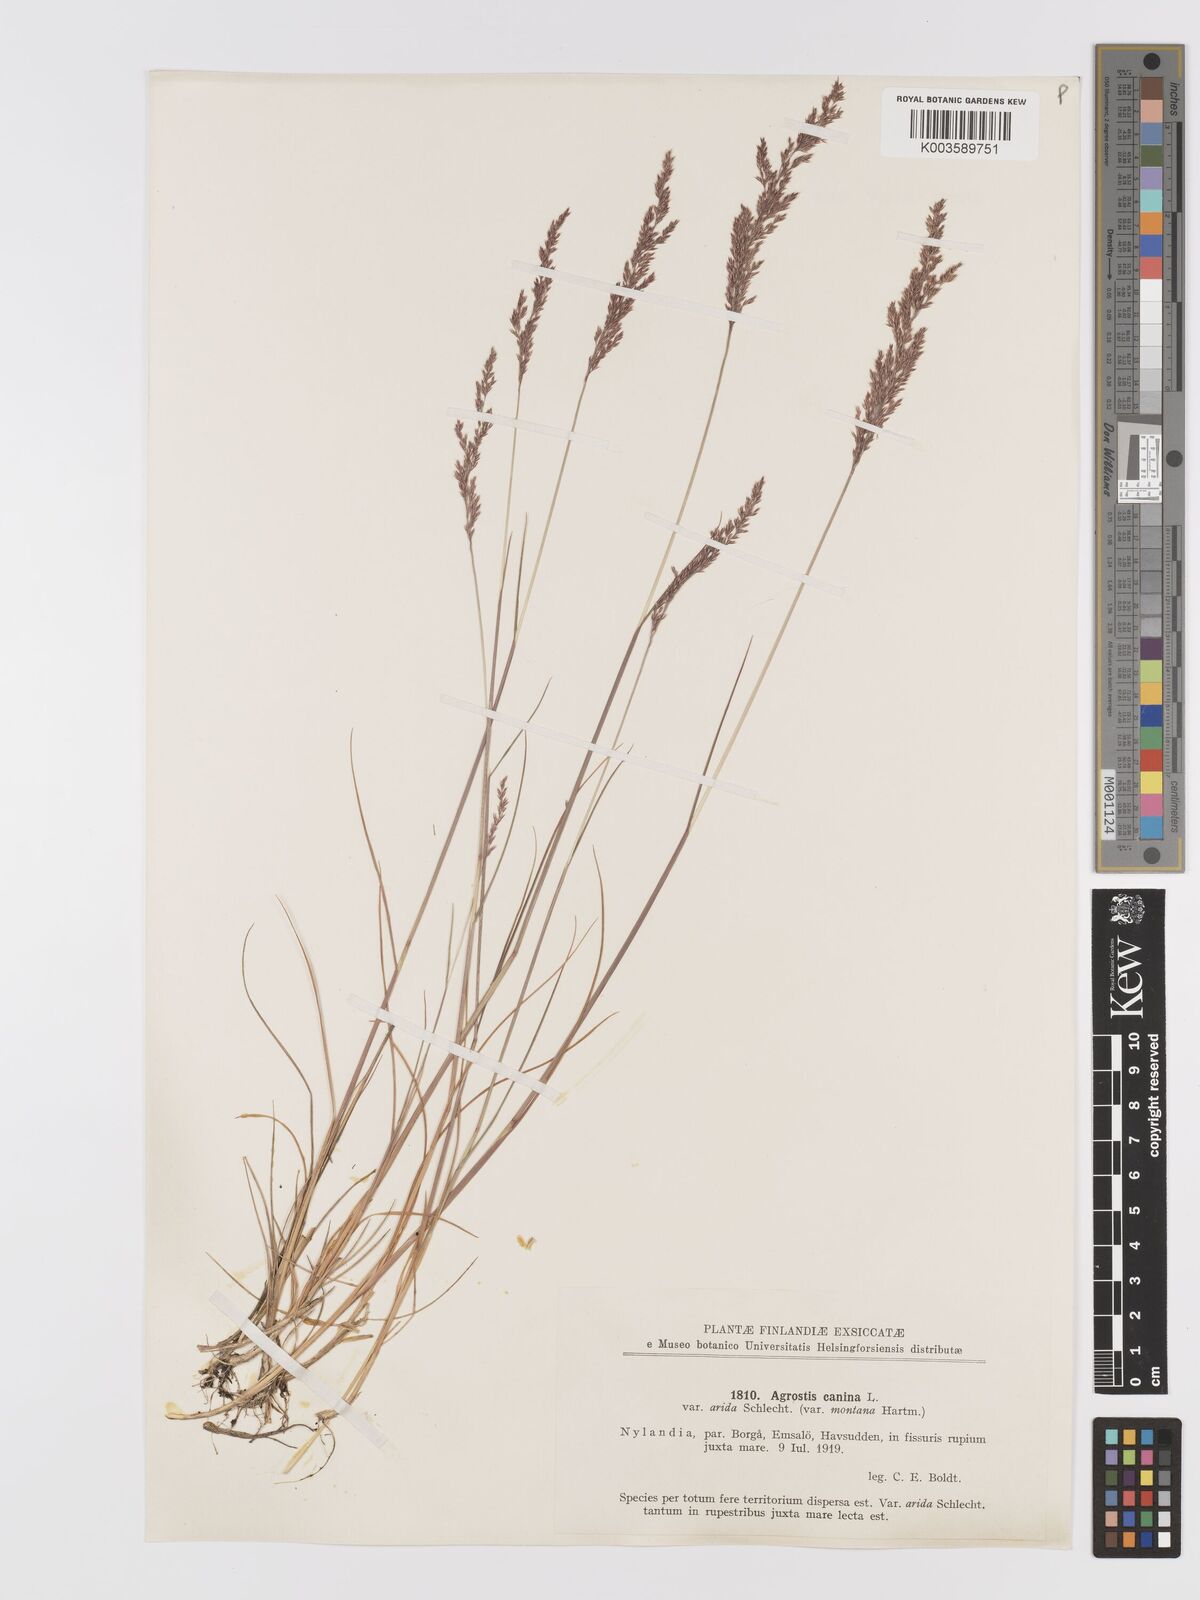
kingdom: Plantae
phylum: Tracheophyta
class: Liliopsida
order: Poales
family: Poaceae
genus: Agrostis
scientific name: Agrostis
